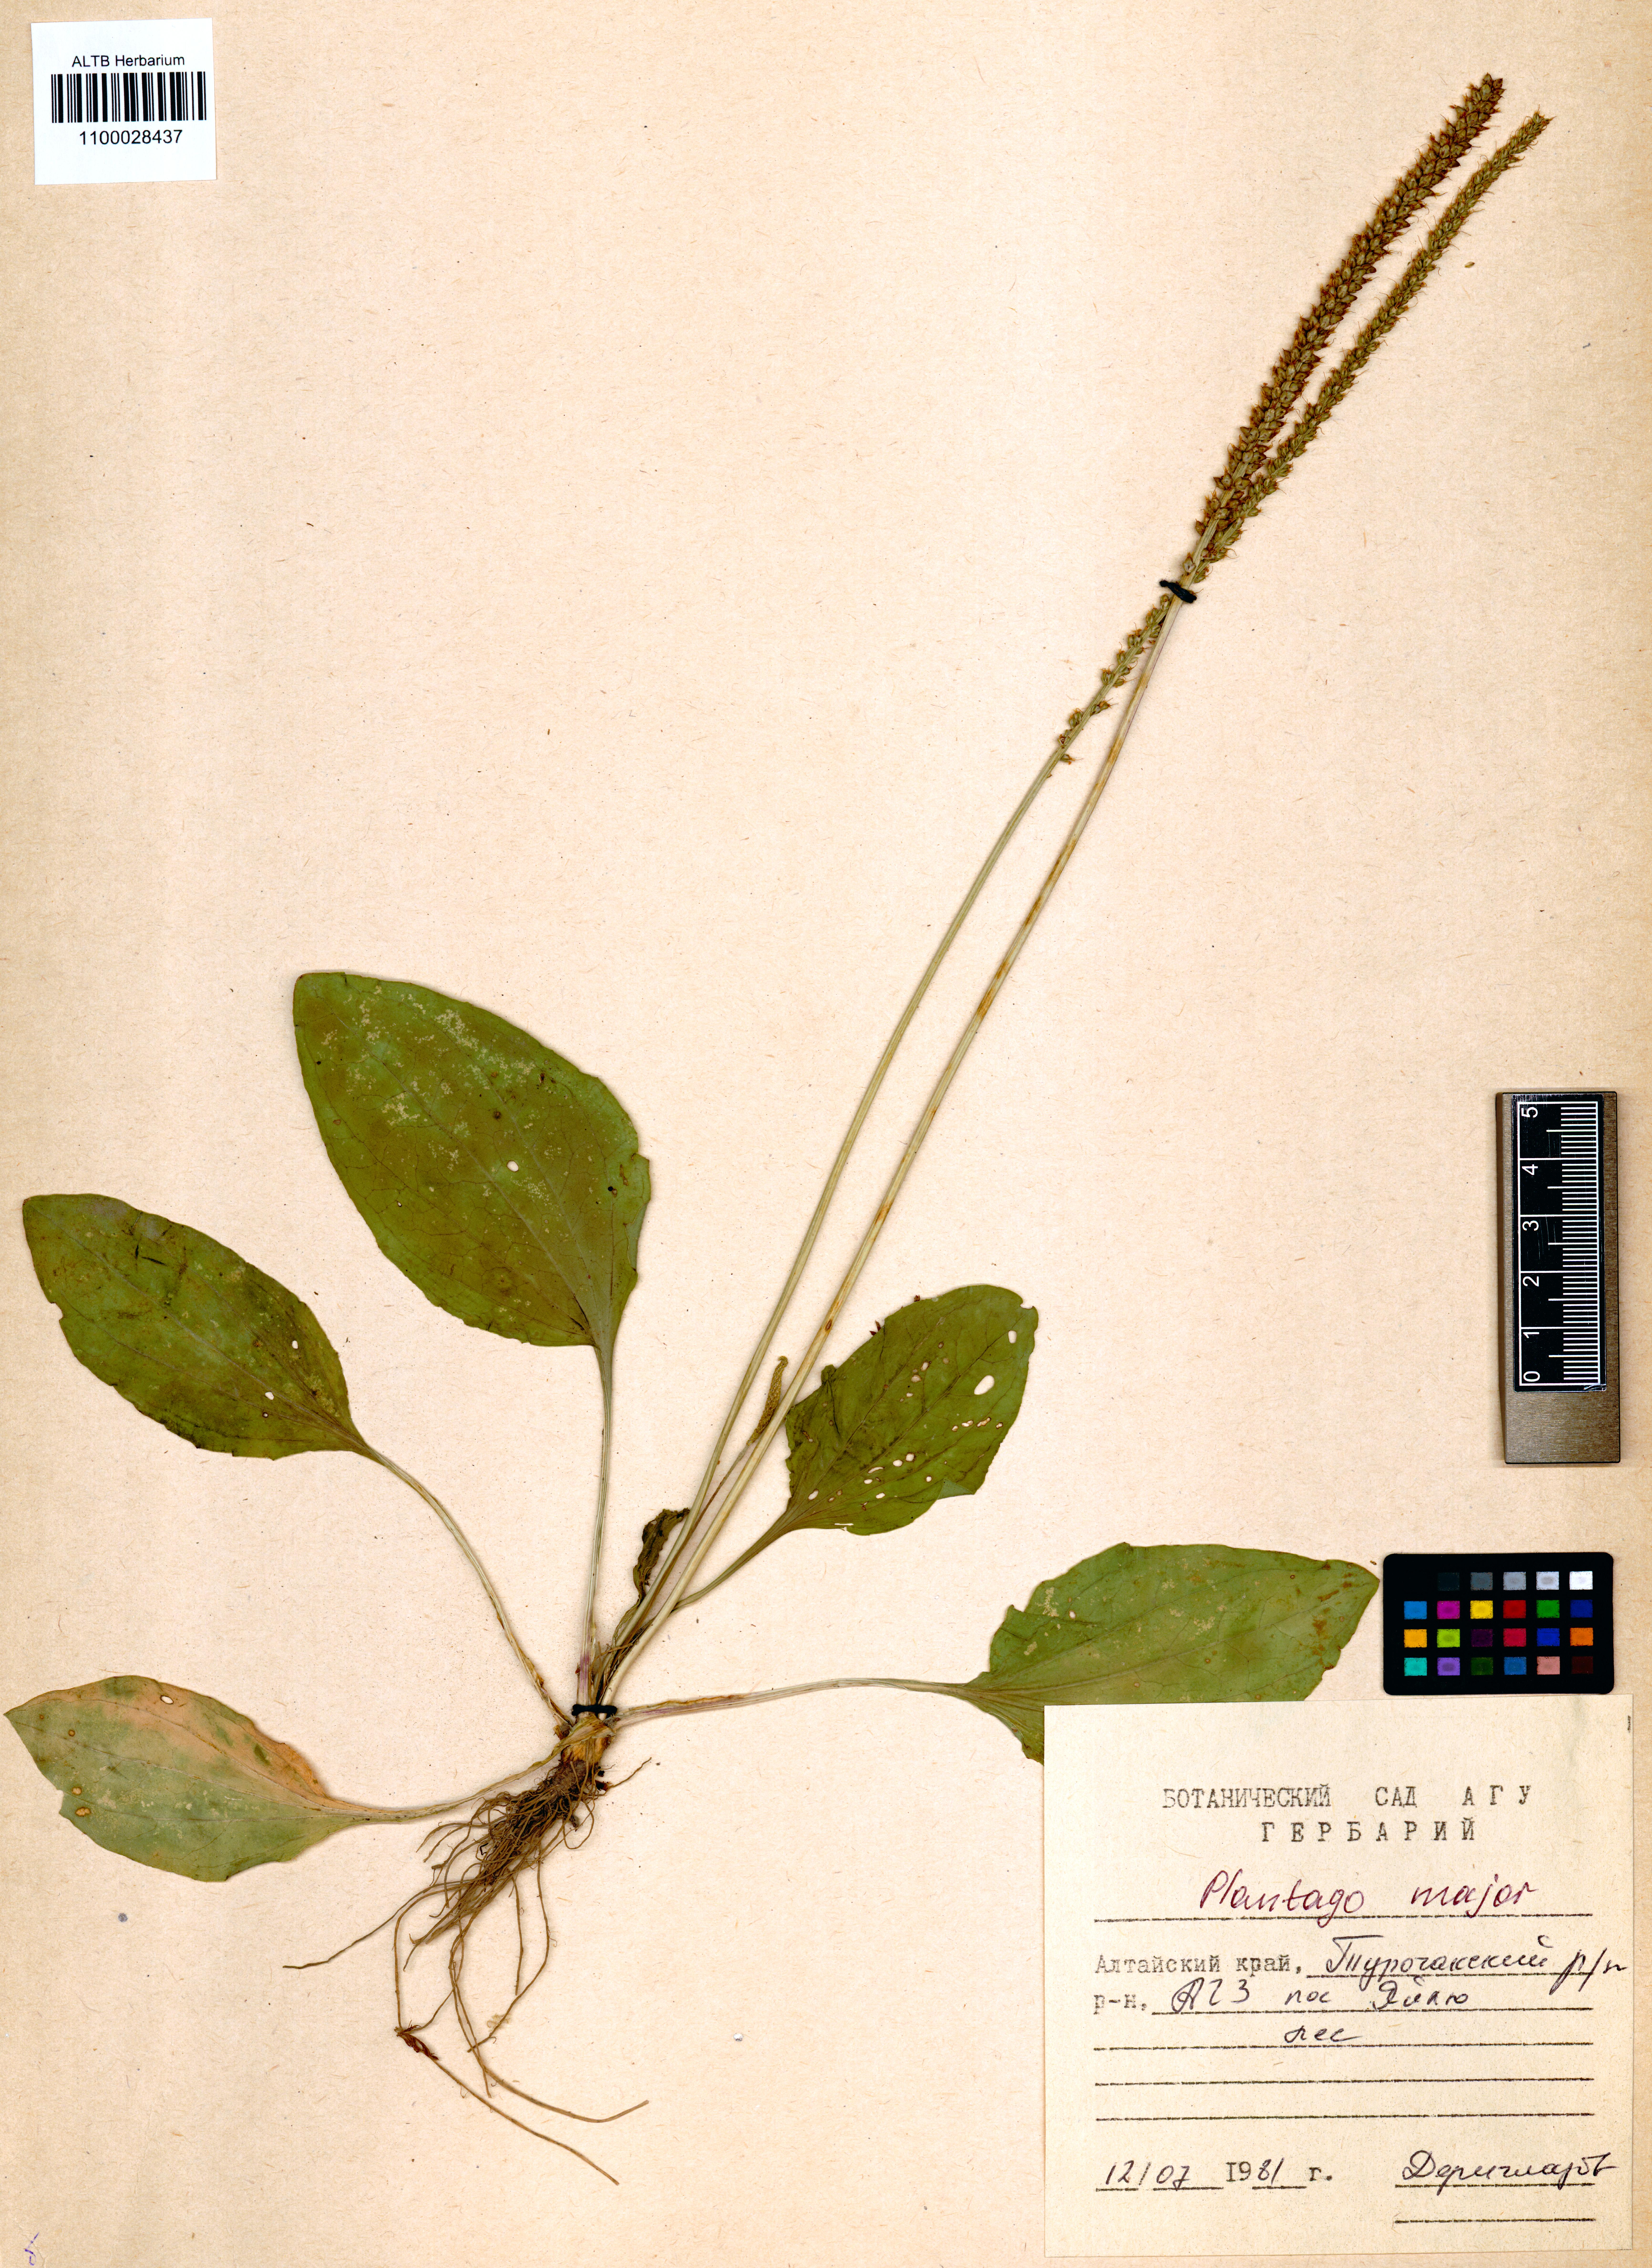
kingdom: Plantae
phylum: Tracheophyta
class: Magnoliopsida
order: Lamiales
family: Plantaginaceae
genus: Plantago
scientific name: Plantago major
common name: Common plantain
